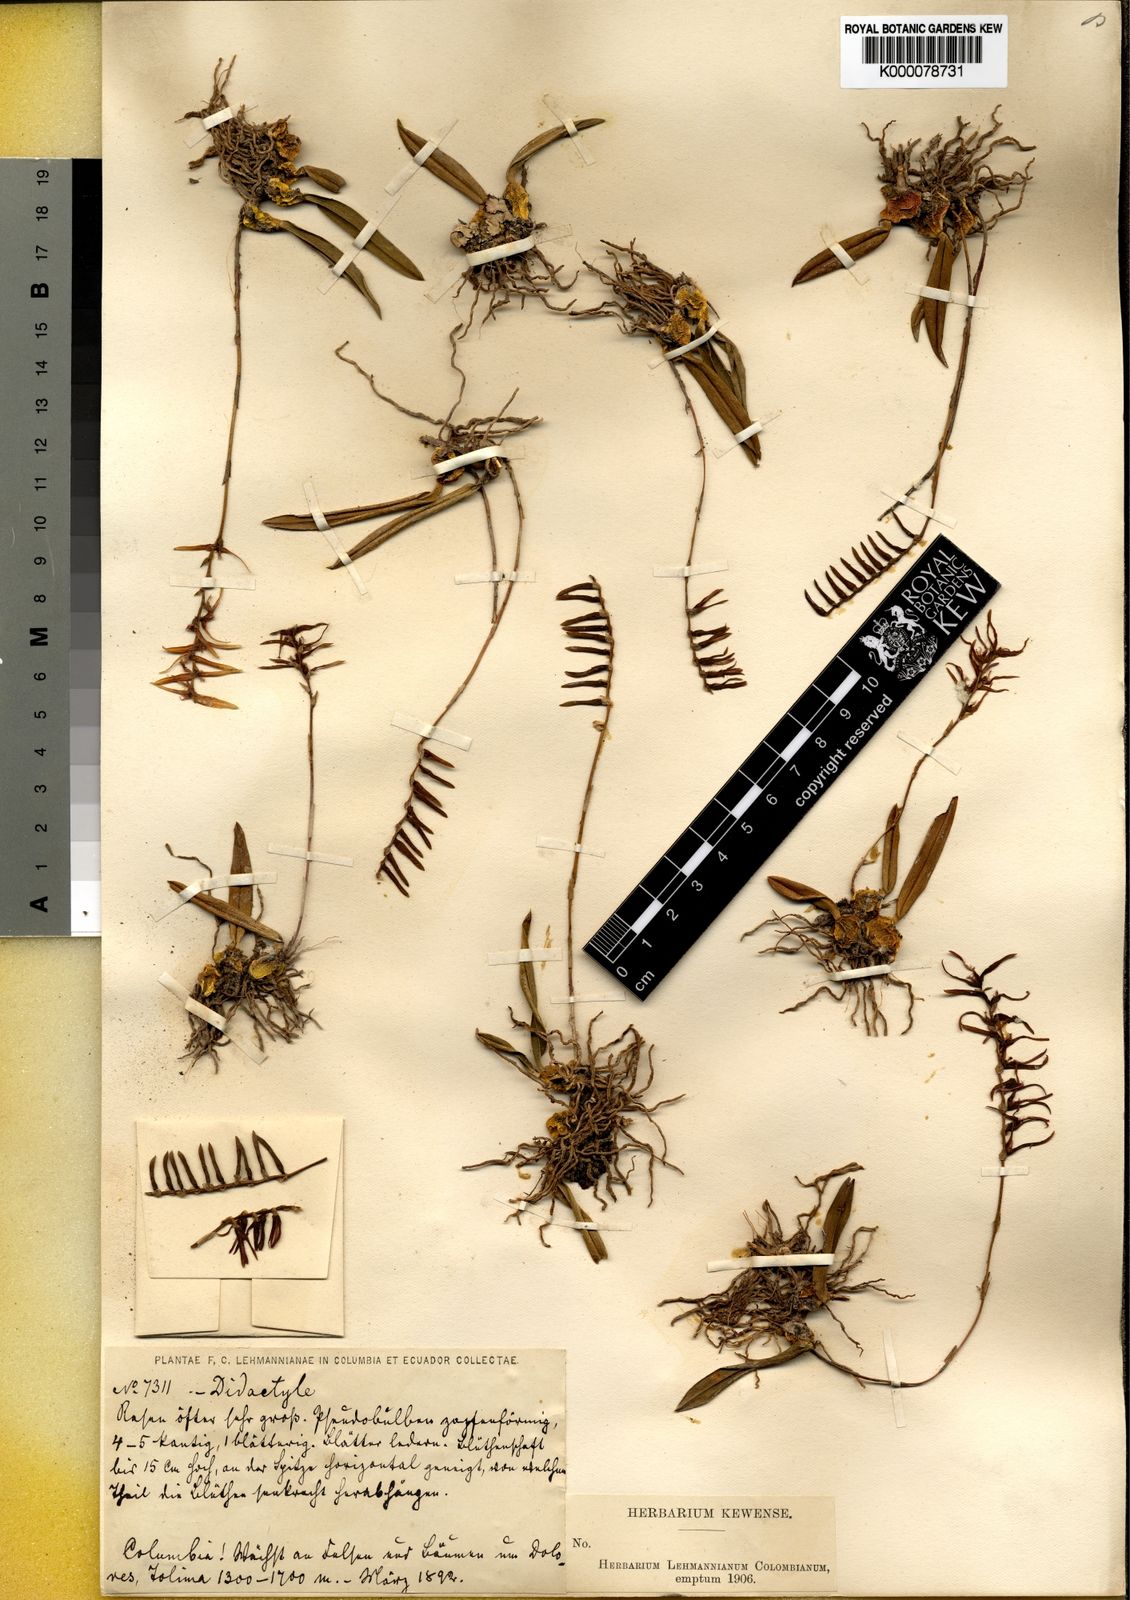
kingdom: Plantae
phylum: Tracheophyta
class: Liliopsida
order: Asparagales
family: Orchidaceae
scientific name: Orchidaceae
